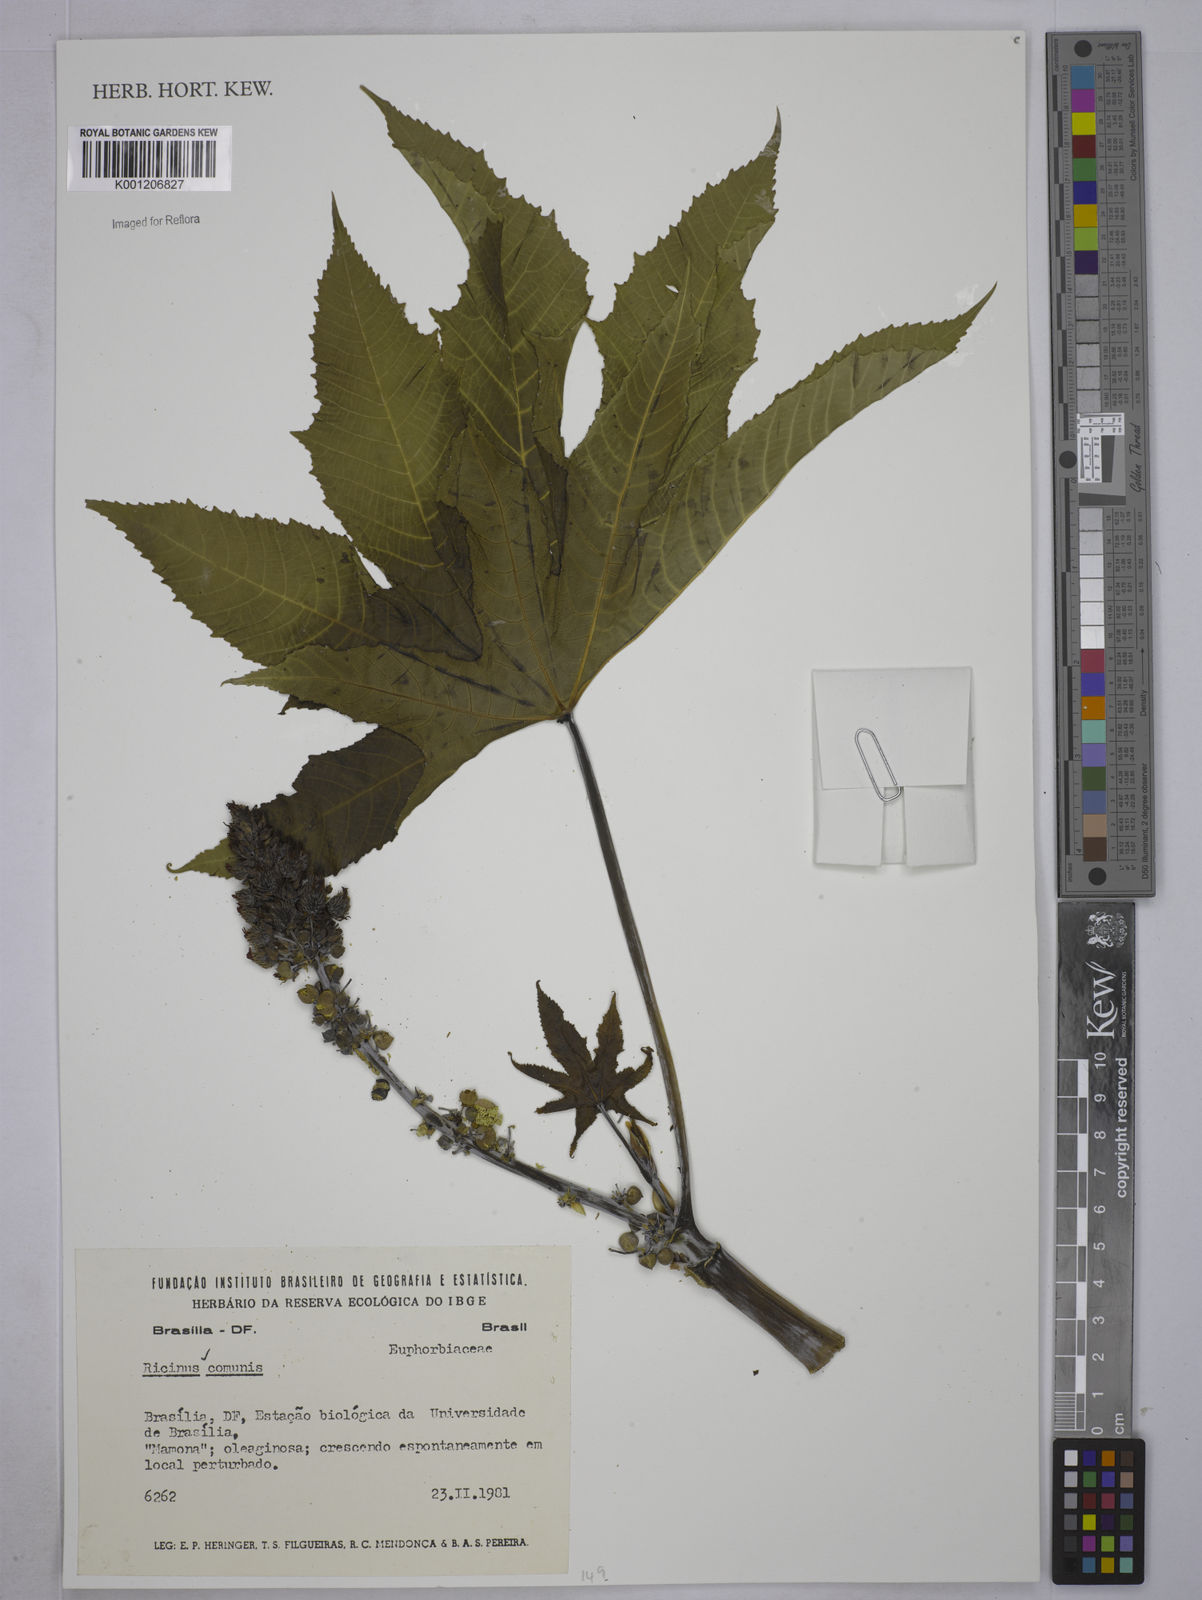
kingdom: Plantae
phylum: Tracheophyta
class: Magnoliopsida
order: Malpighiales
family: Euphorbiaceae
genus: Ricinus
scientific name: Ricinus communis
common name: Castor-oil-plant
